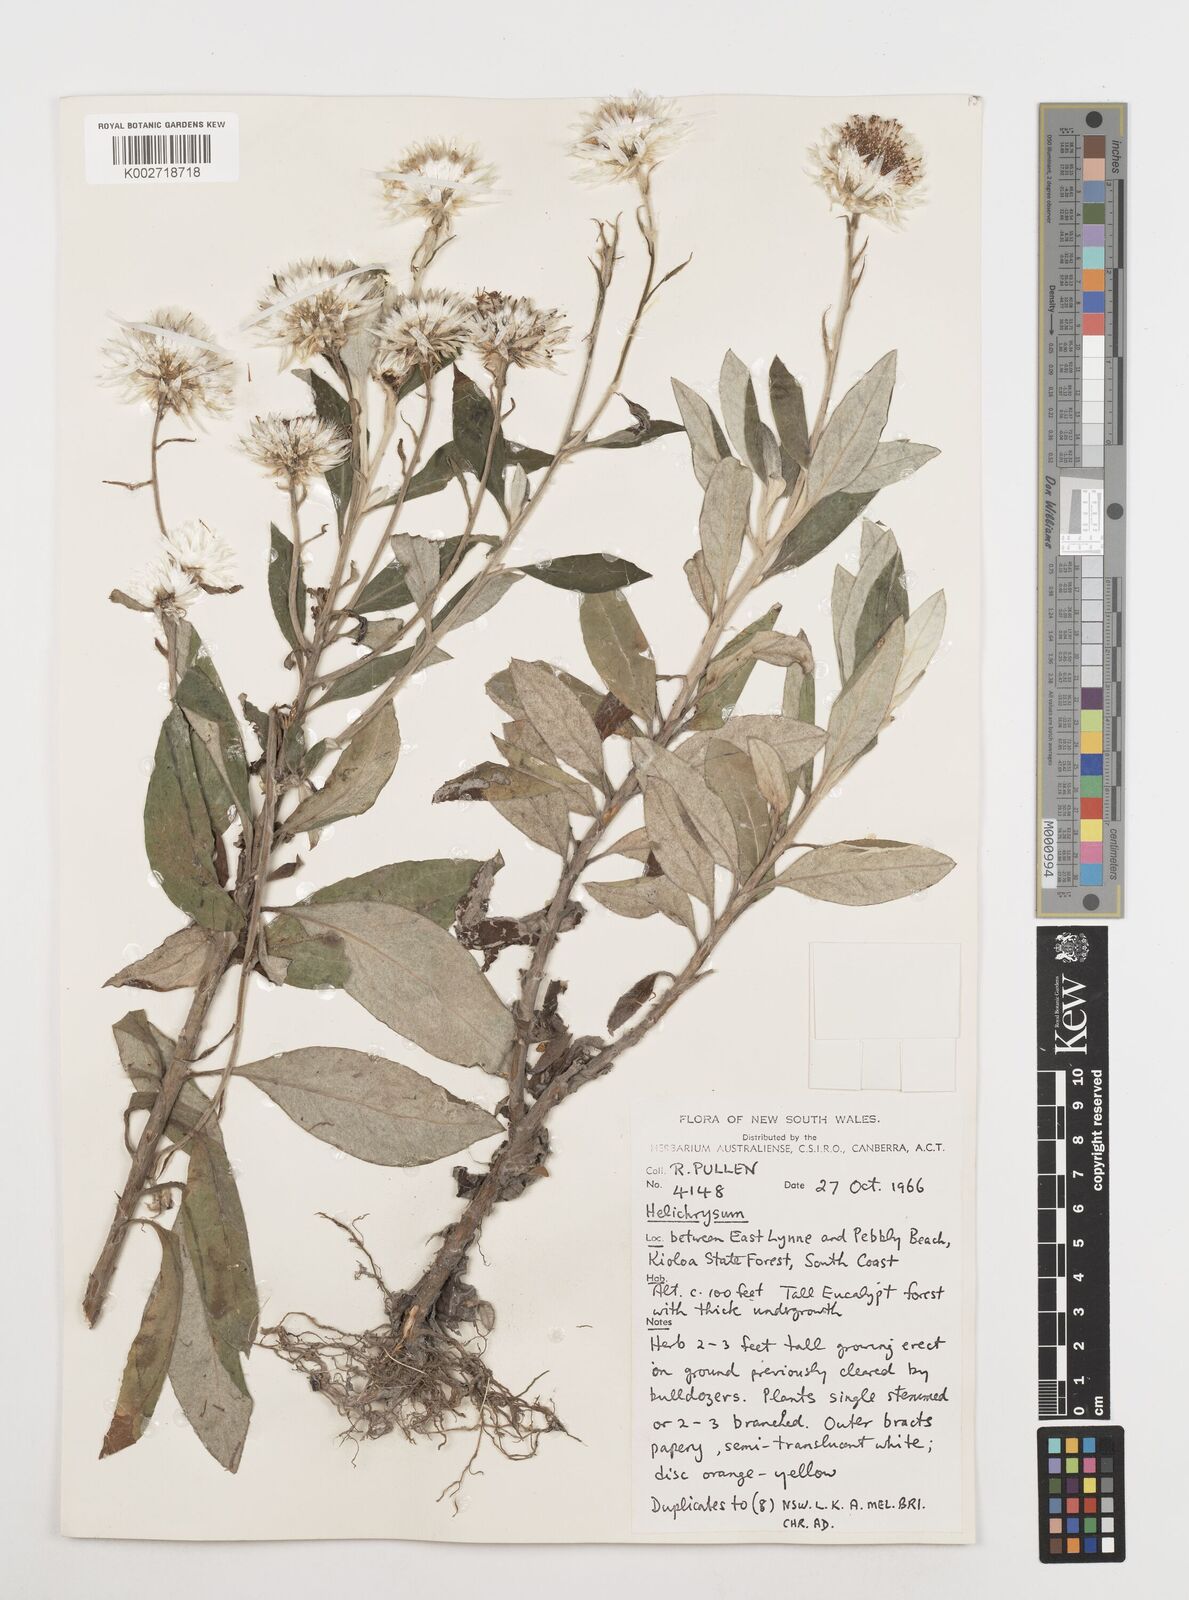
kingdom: Plantae
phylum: Tracheophyta
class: Magnoliopsida
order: Asterales
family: Asteraceae
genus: Coronidium
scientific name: Coronidium
